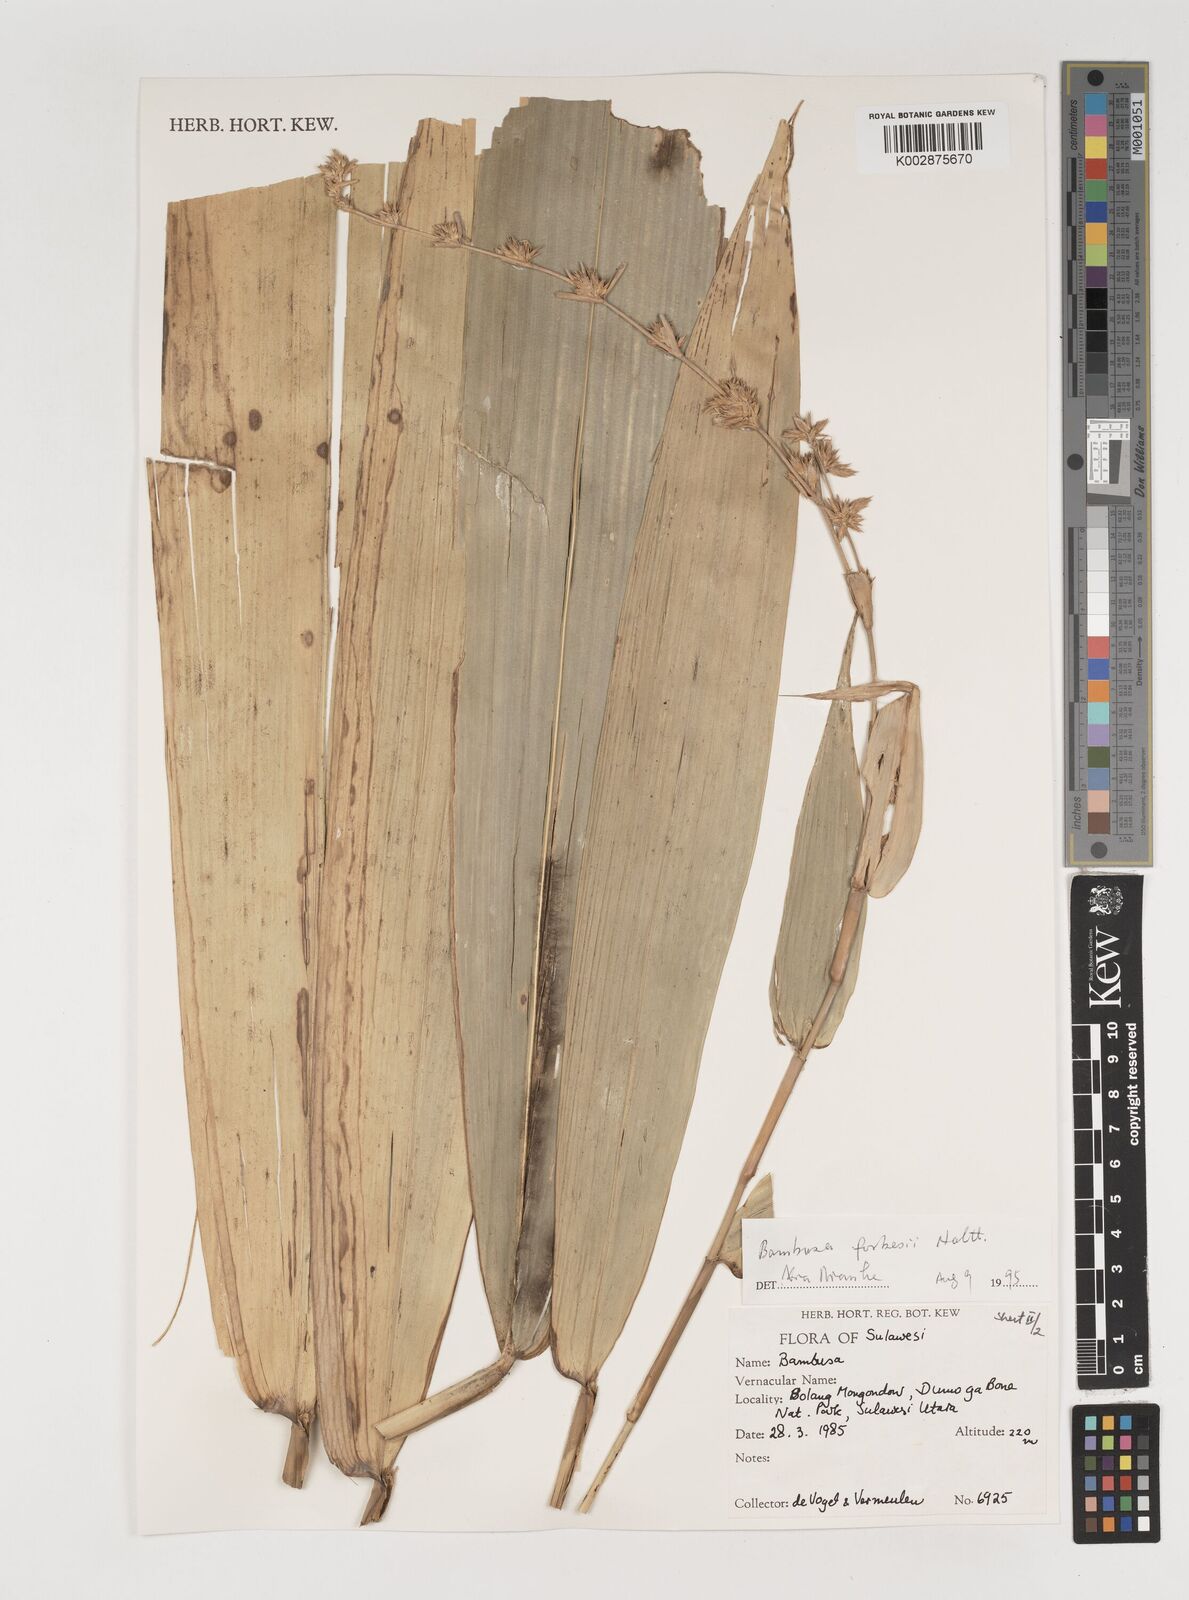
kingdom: Plantae
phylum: Tracheophyta
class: Liliopsida
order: Poales
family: Poaceae
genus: Neololeba
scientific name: Neololeba atra
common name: Cape bamboo
